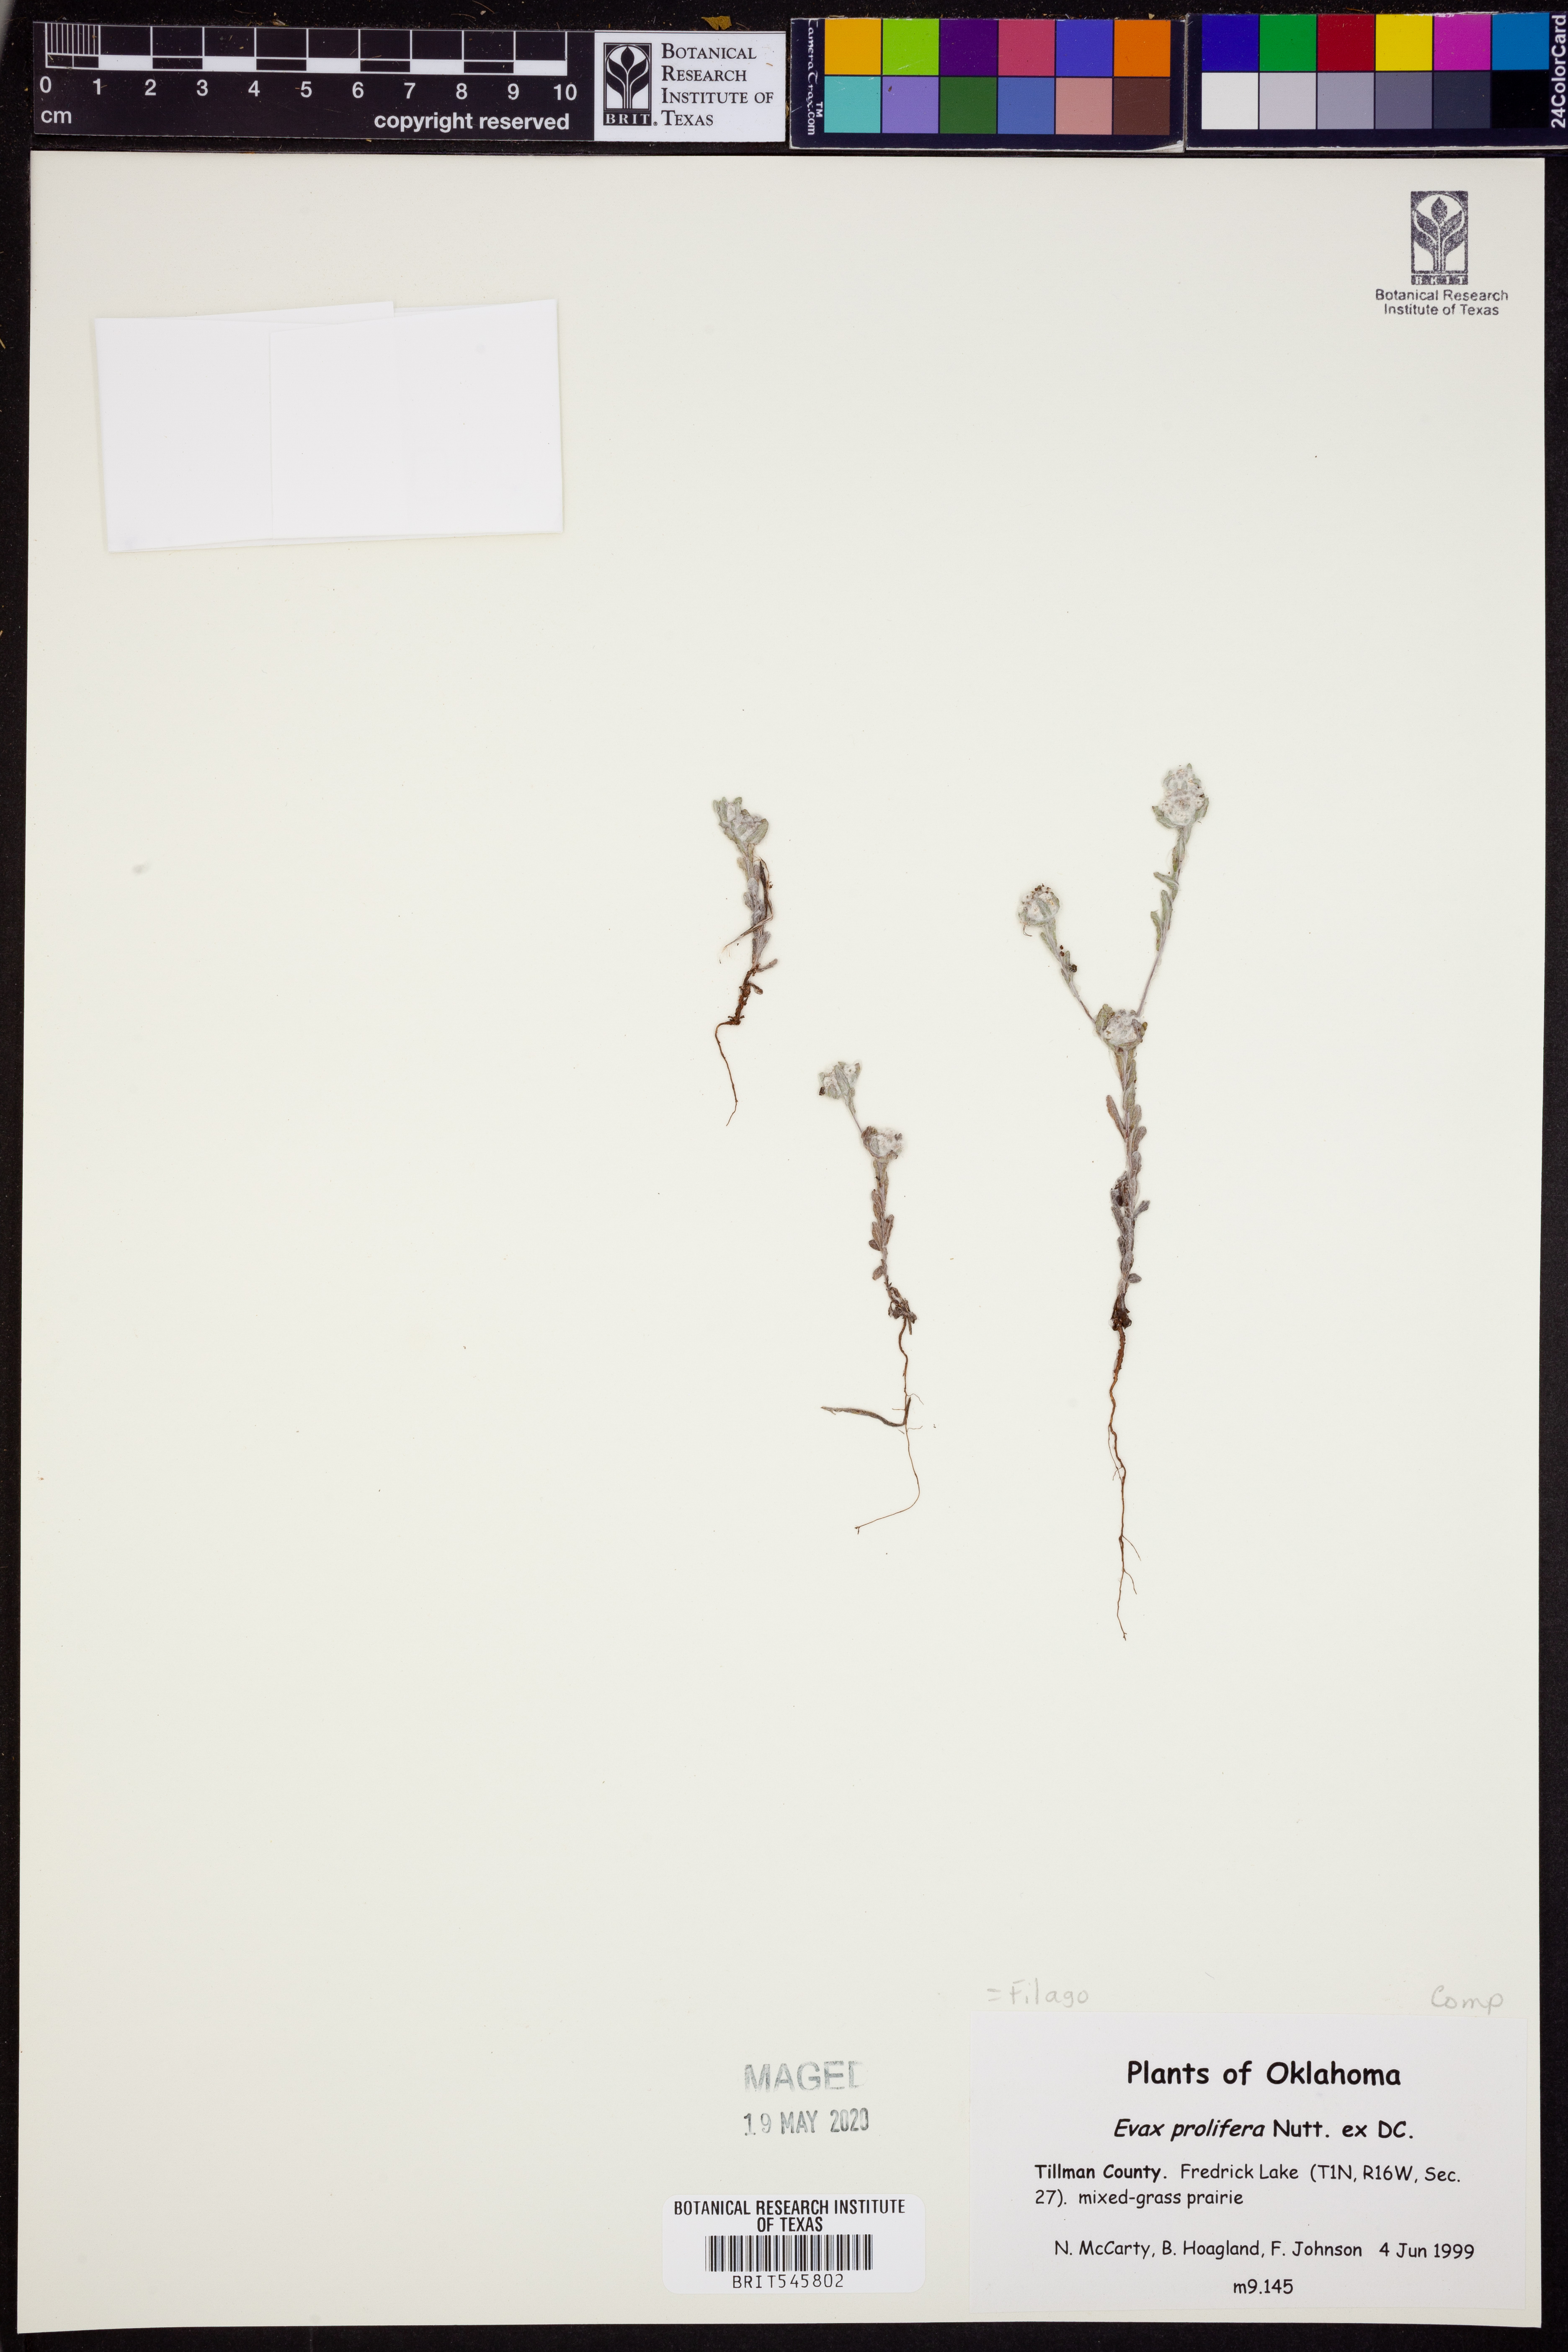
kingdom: Plantae
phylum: Tracheophyta
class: Magnoliopsida
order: Asterales
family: Asteraceae
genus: Diaperia
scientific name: Diaperia prolifera
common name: Big-head rabbit-tobacco
